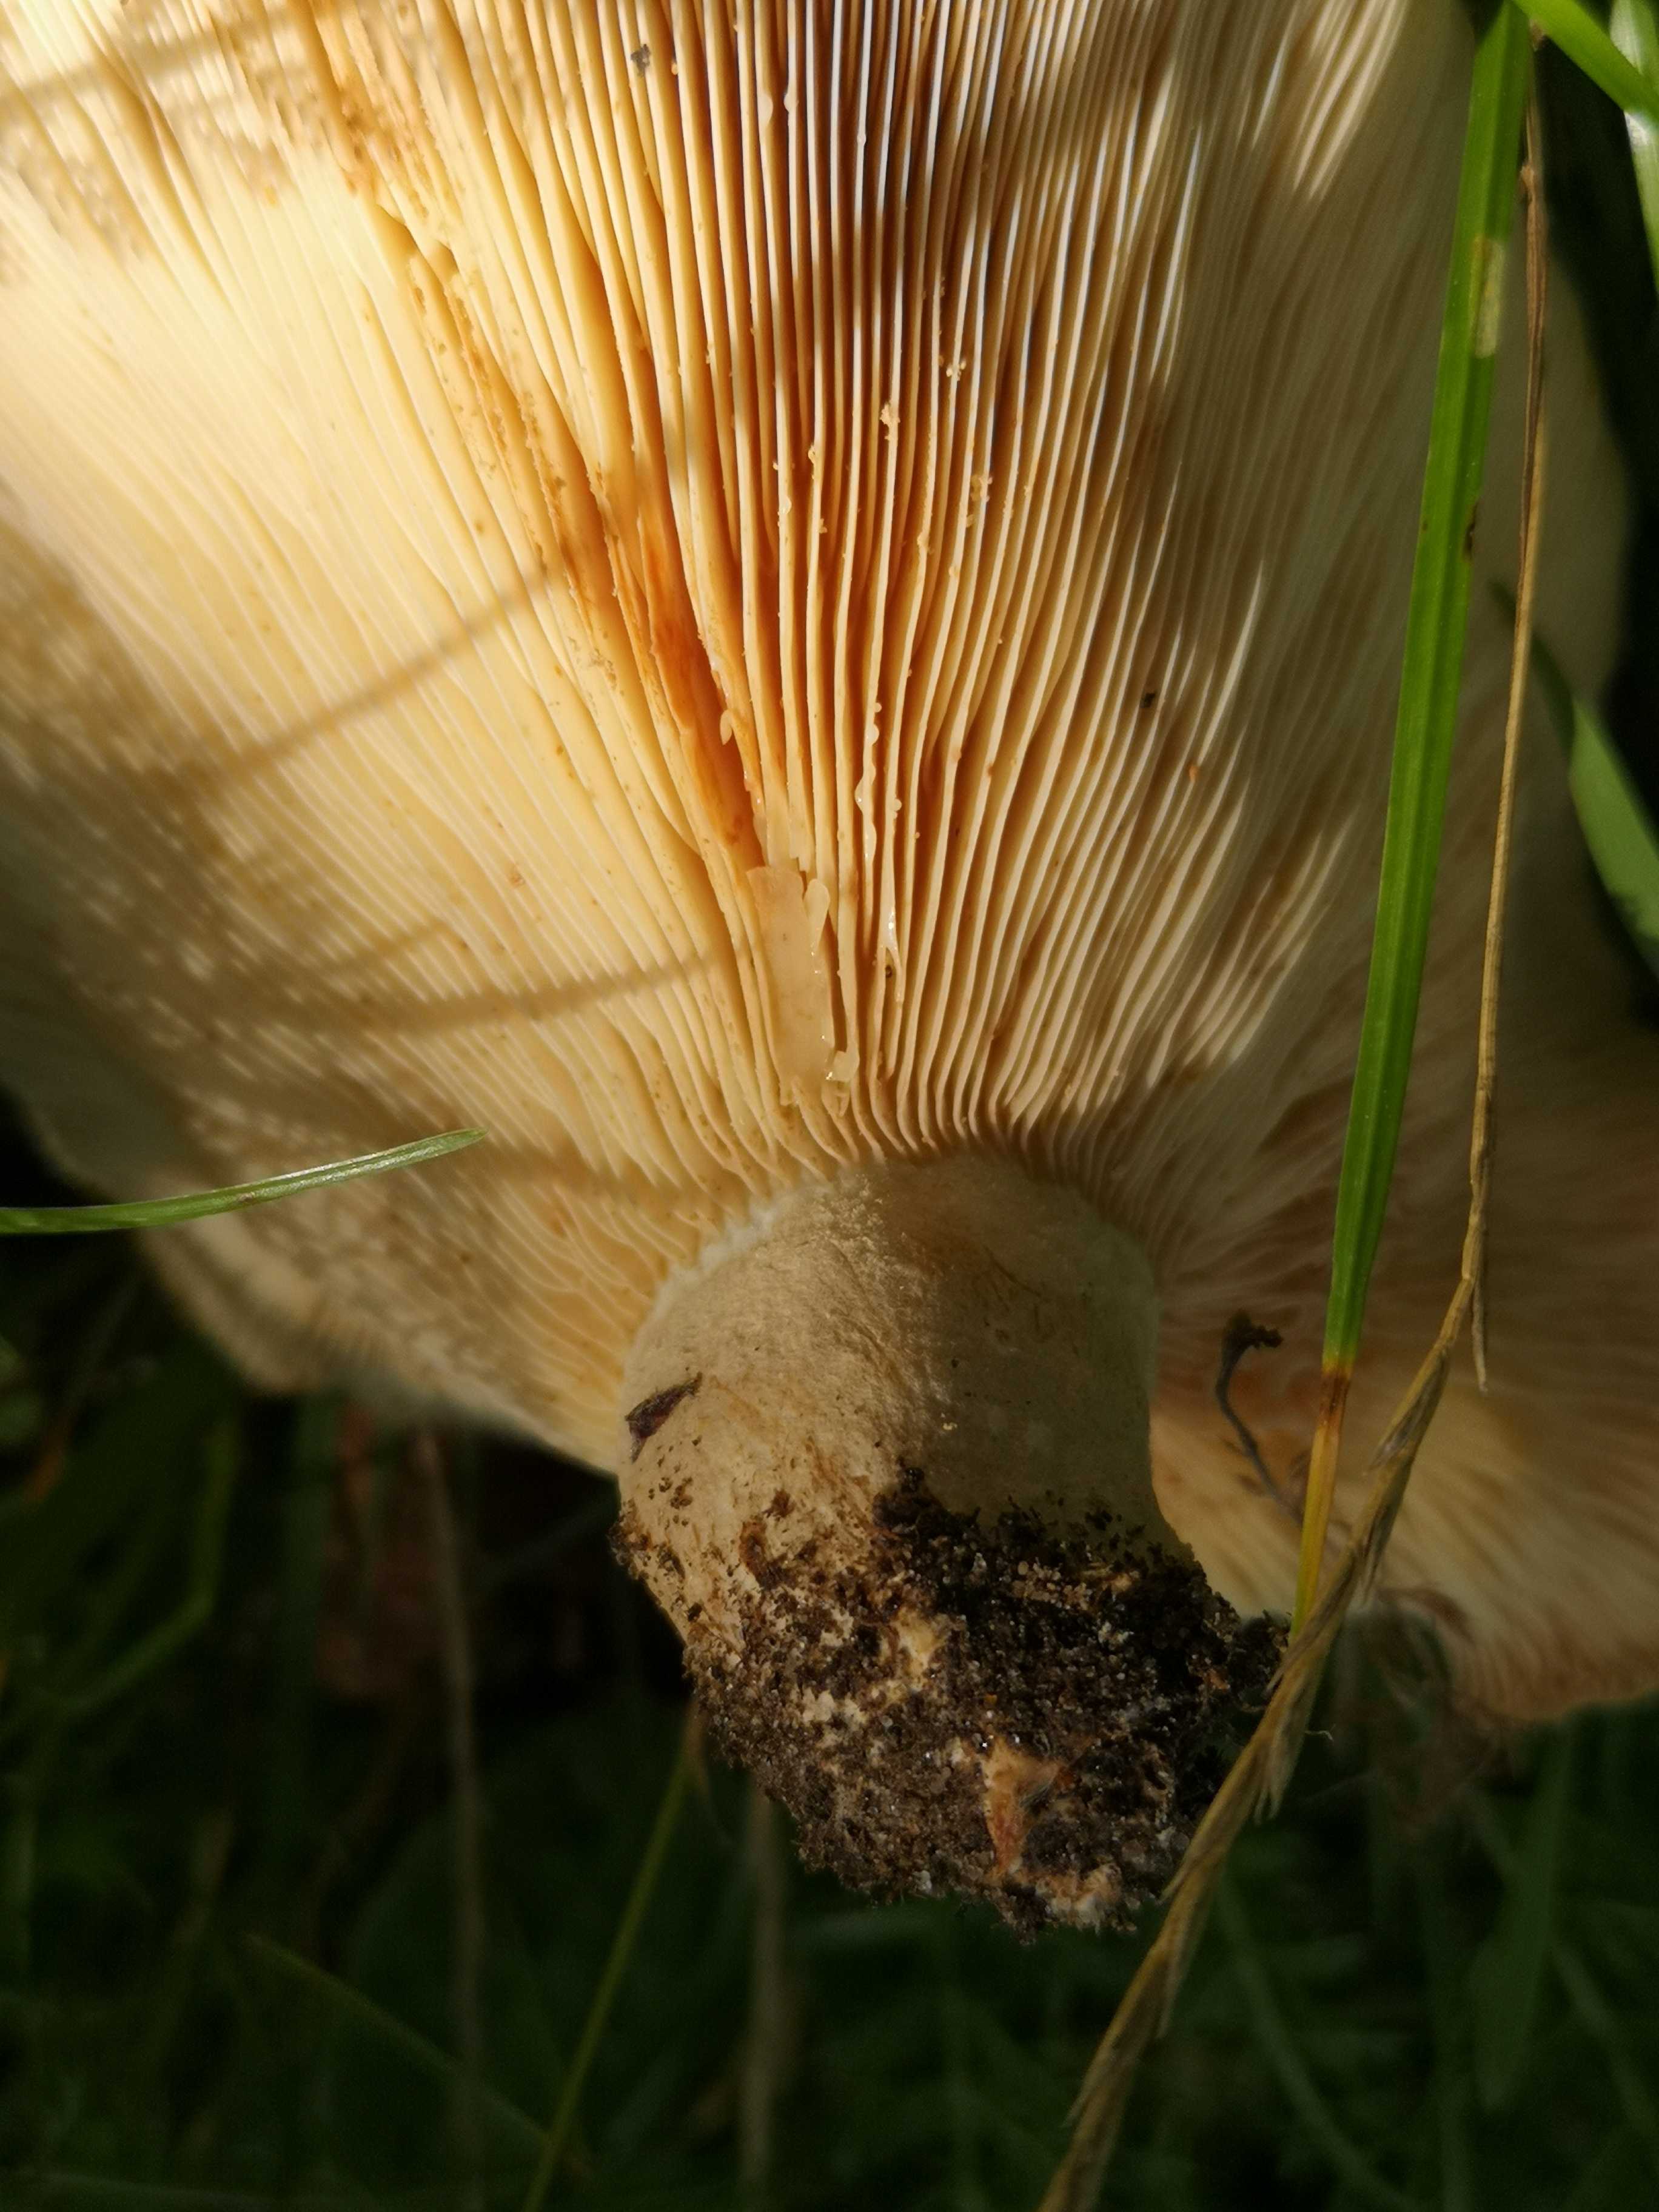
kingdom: Fungi
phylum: Basidiomycota
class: Agaricomycetes
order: Russulales
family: Russulaceae
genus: Lactarius
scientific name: Lactarius evosmus
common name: bæltet mælkehat
